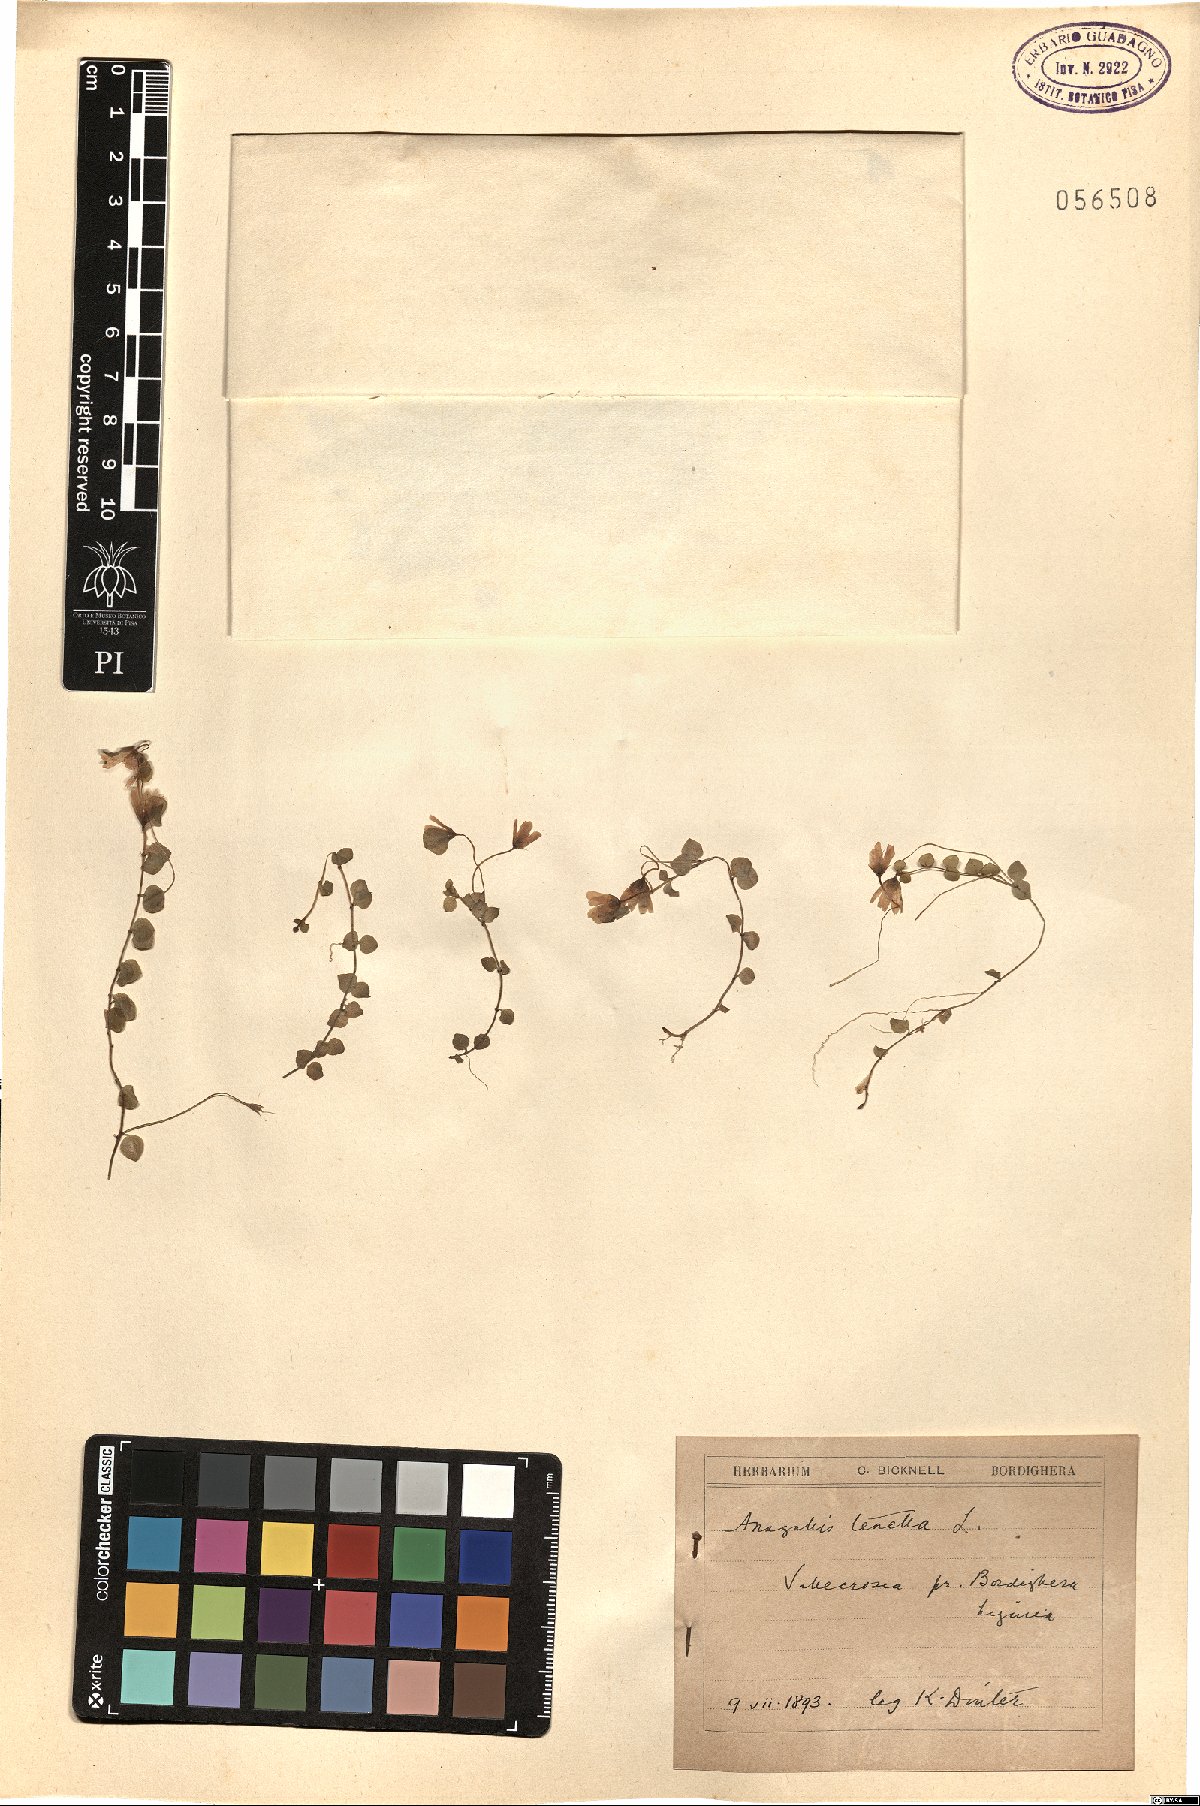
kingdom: Plantae
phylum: Tracheophyta
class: Magnoliopsida
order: Ericales
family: Primulaceae
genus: Lysimachia
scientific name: Lysimachia tenella
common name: European bog pimpernel
